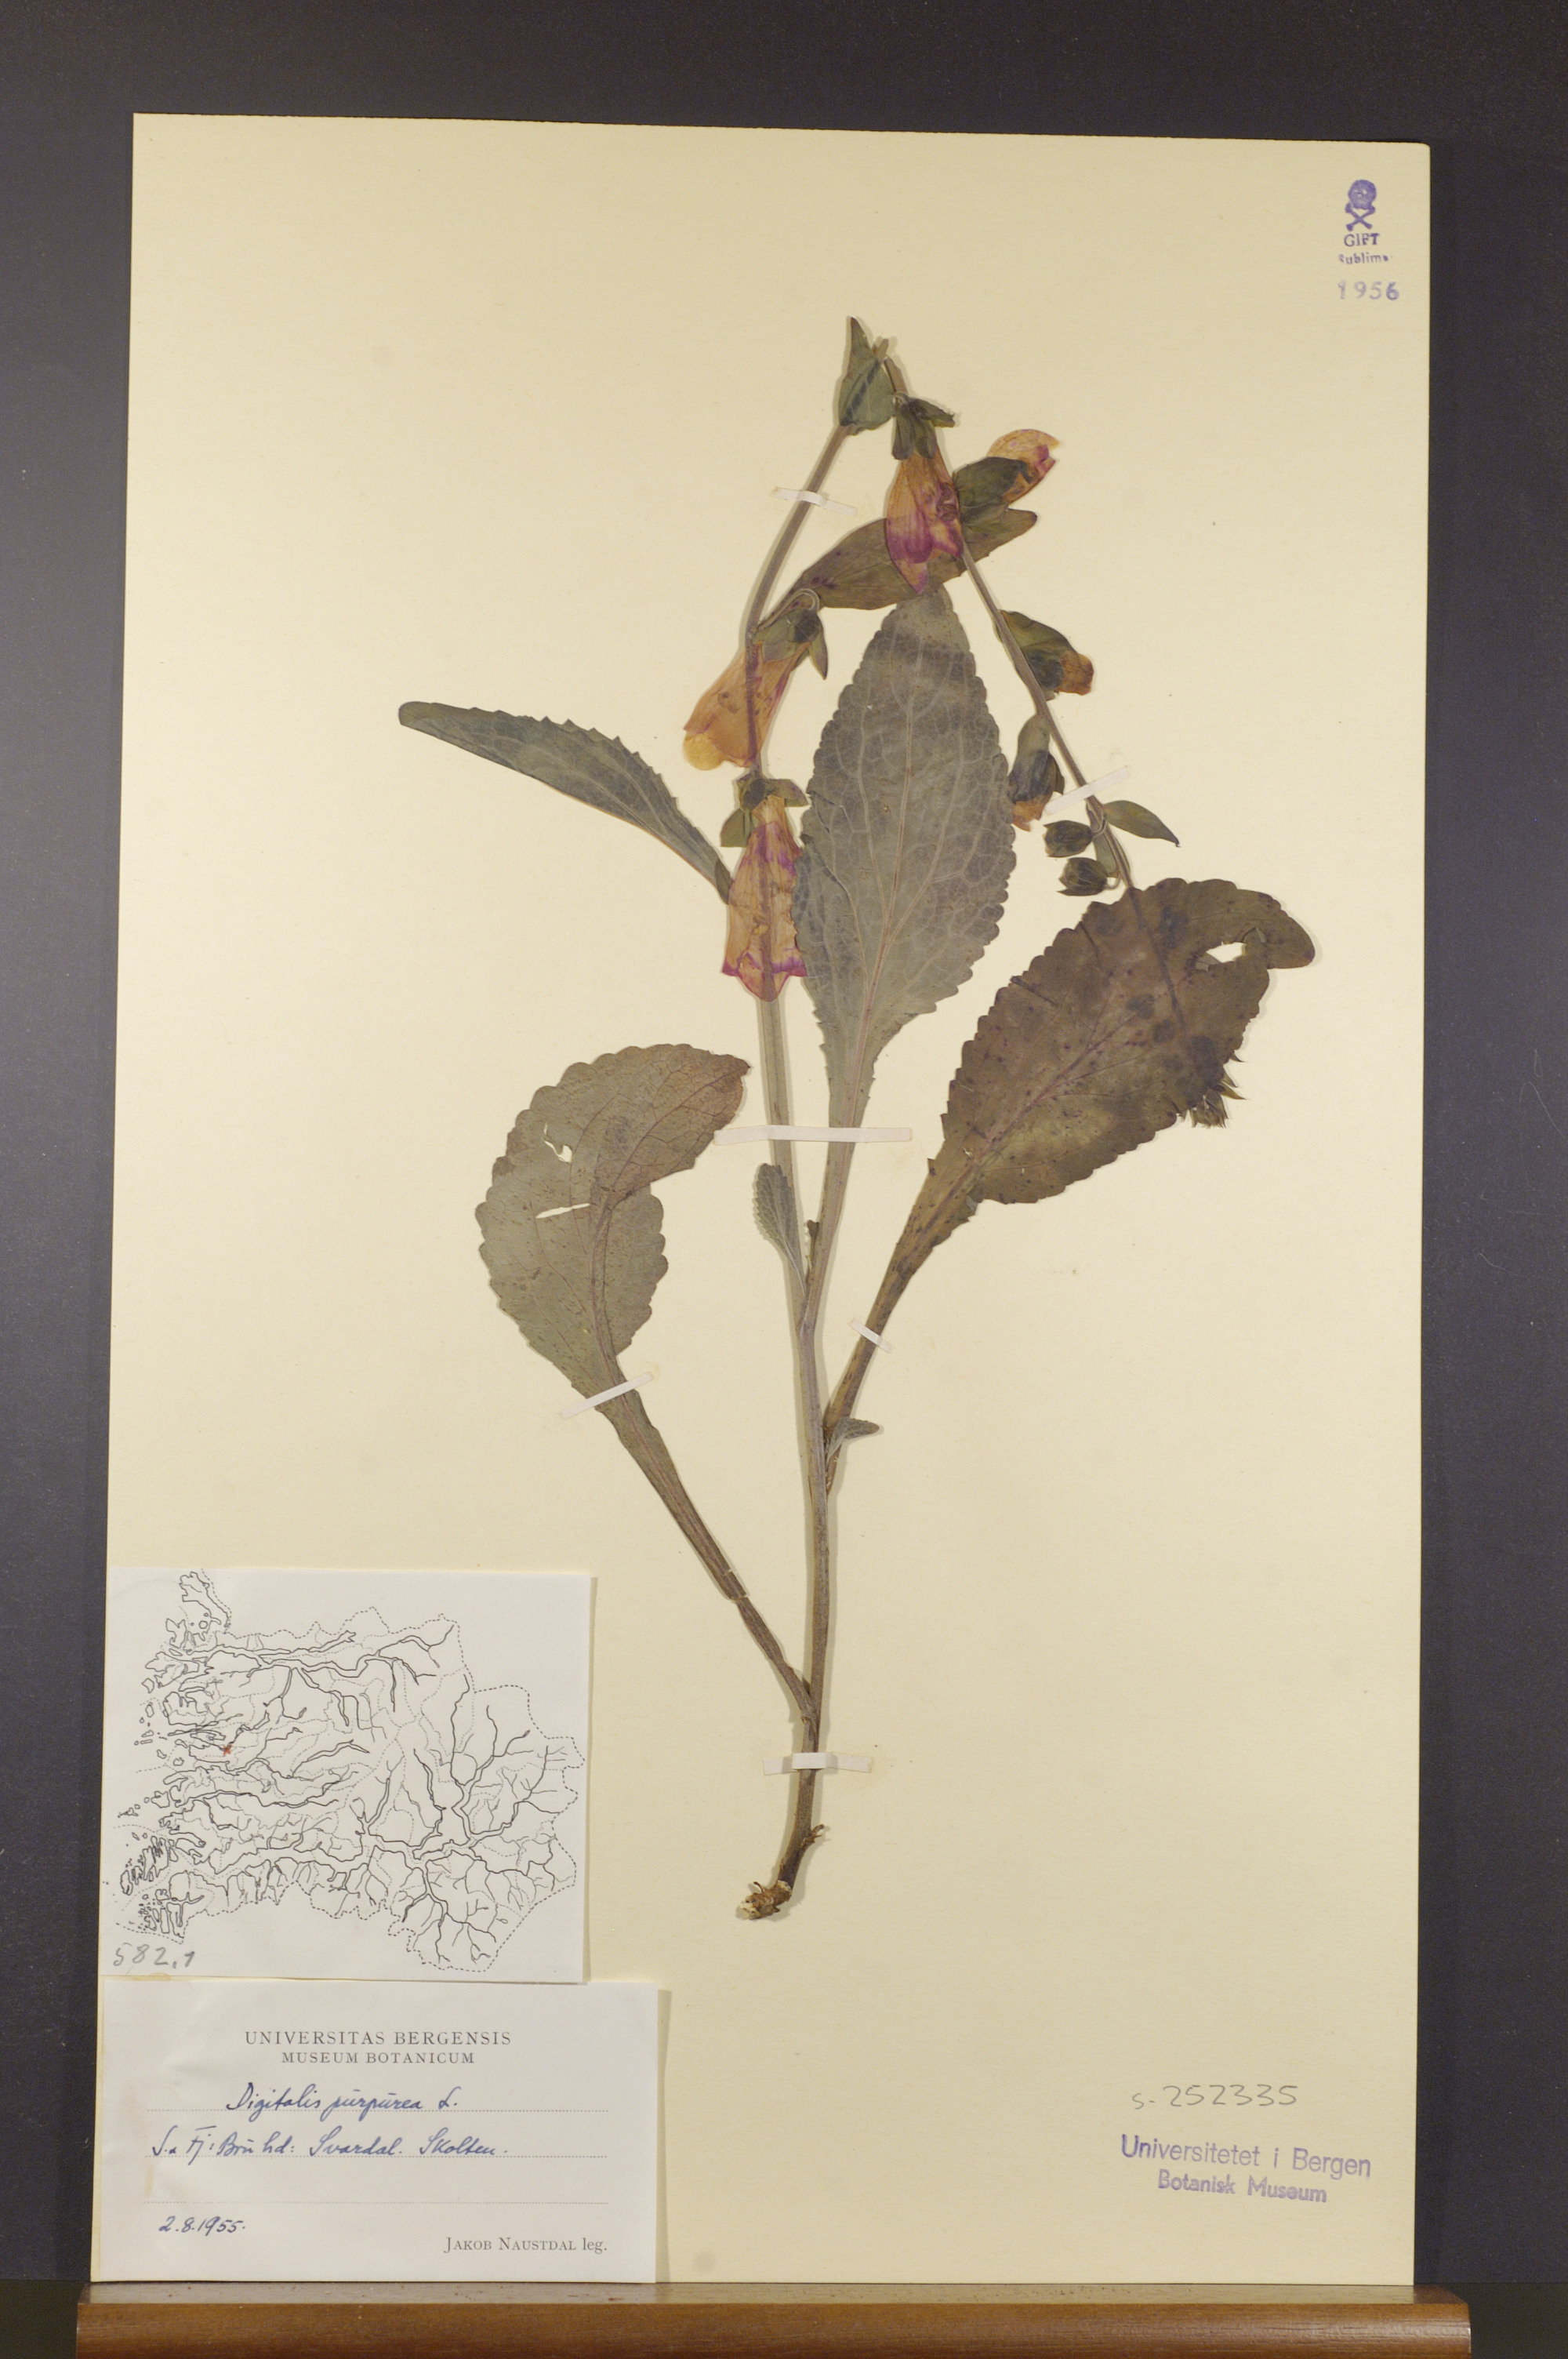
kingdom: Plantae
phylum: Tracheophyta
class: Magnoliopsida
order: Lamiales
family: Plantaginaceae
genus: Digitalis
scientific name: Digitalis purpurea
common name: Foxglove
